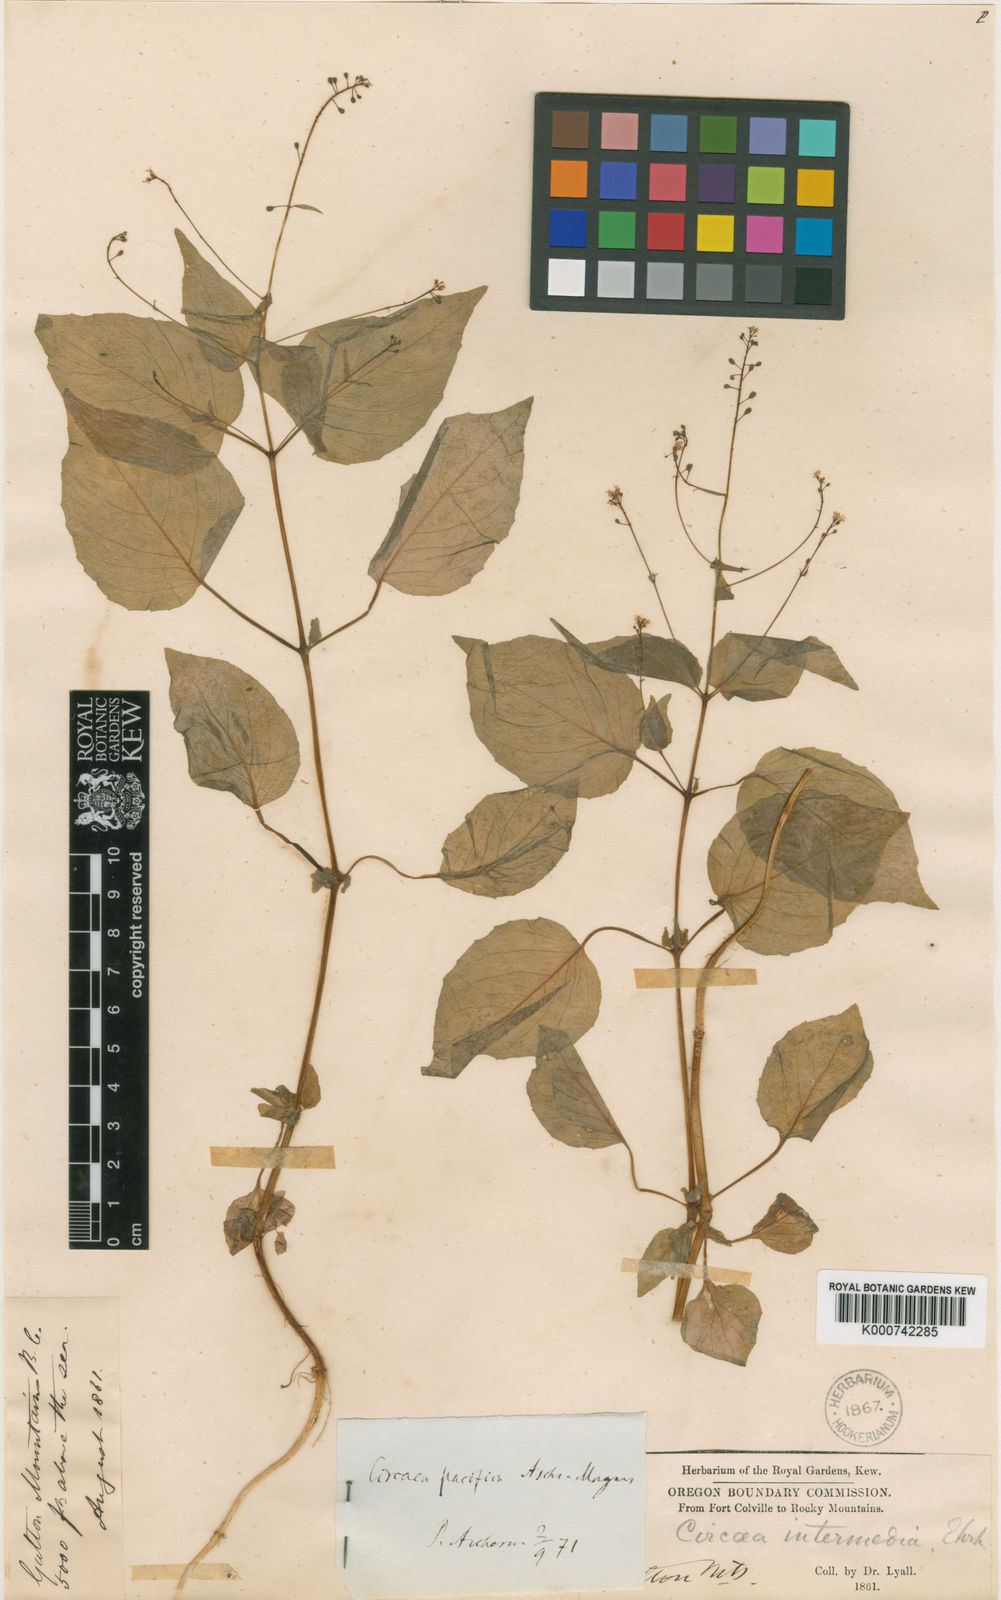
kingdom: Plantae
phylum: Tracheophyta
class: Magnoliopsida
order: Myrtales
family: Onagraceae
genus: Circaea
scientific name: Circaea alpina
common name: Alpine enchanter's-nightshade
